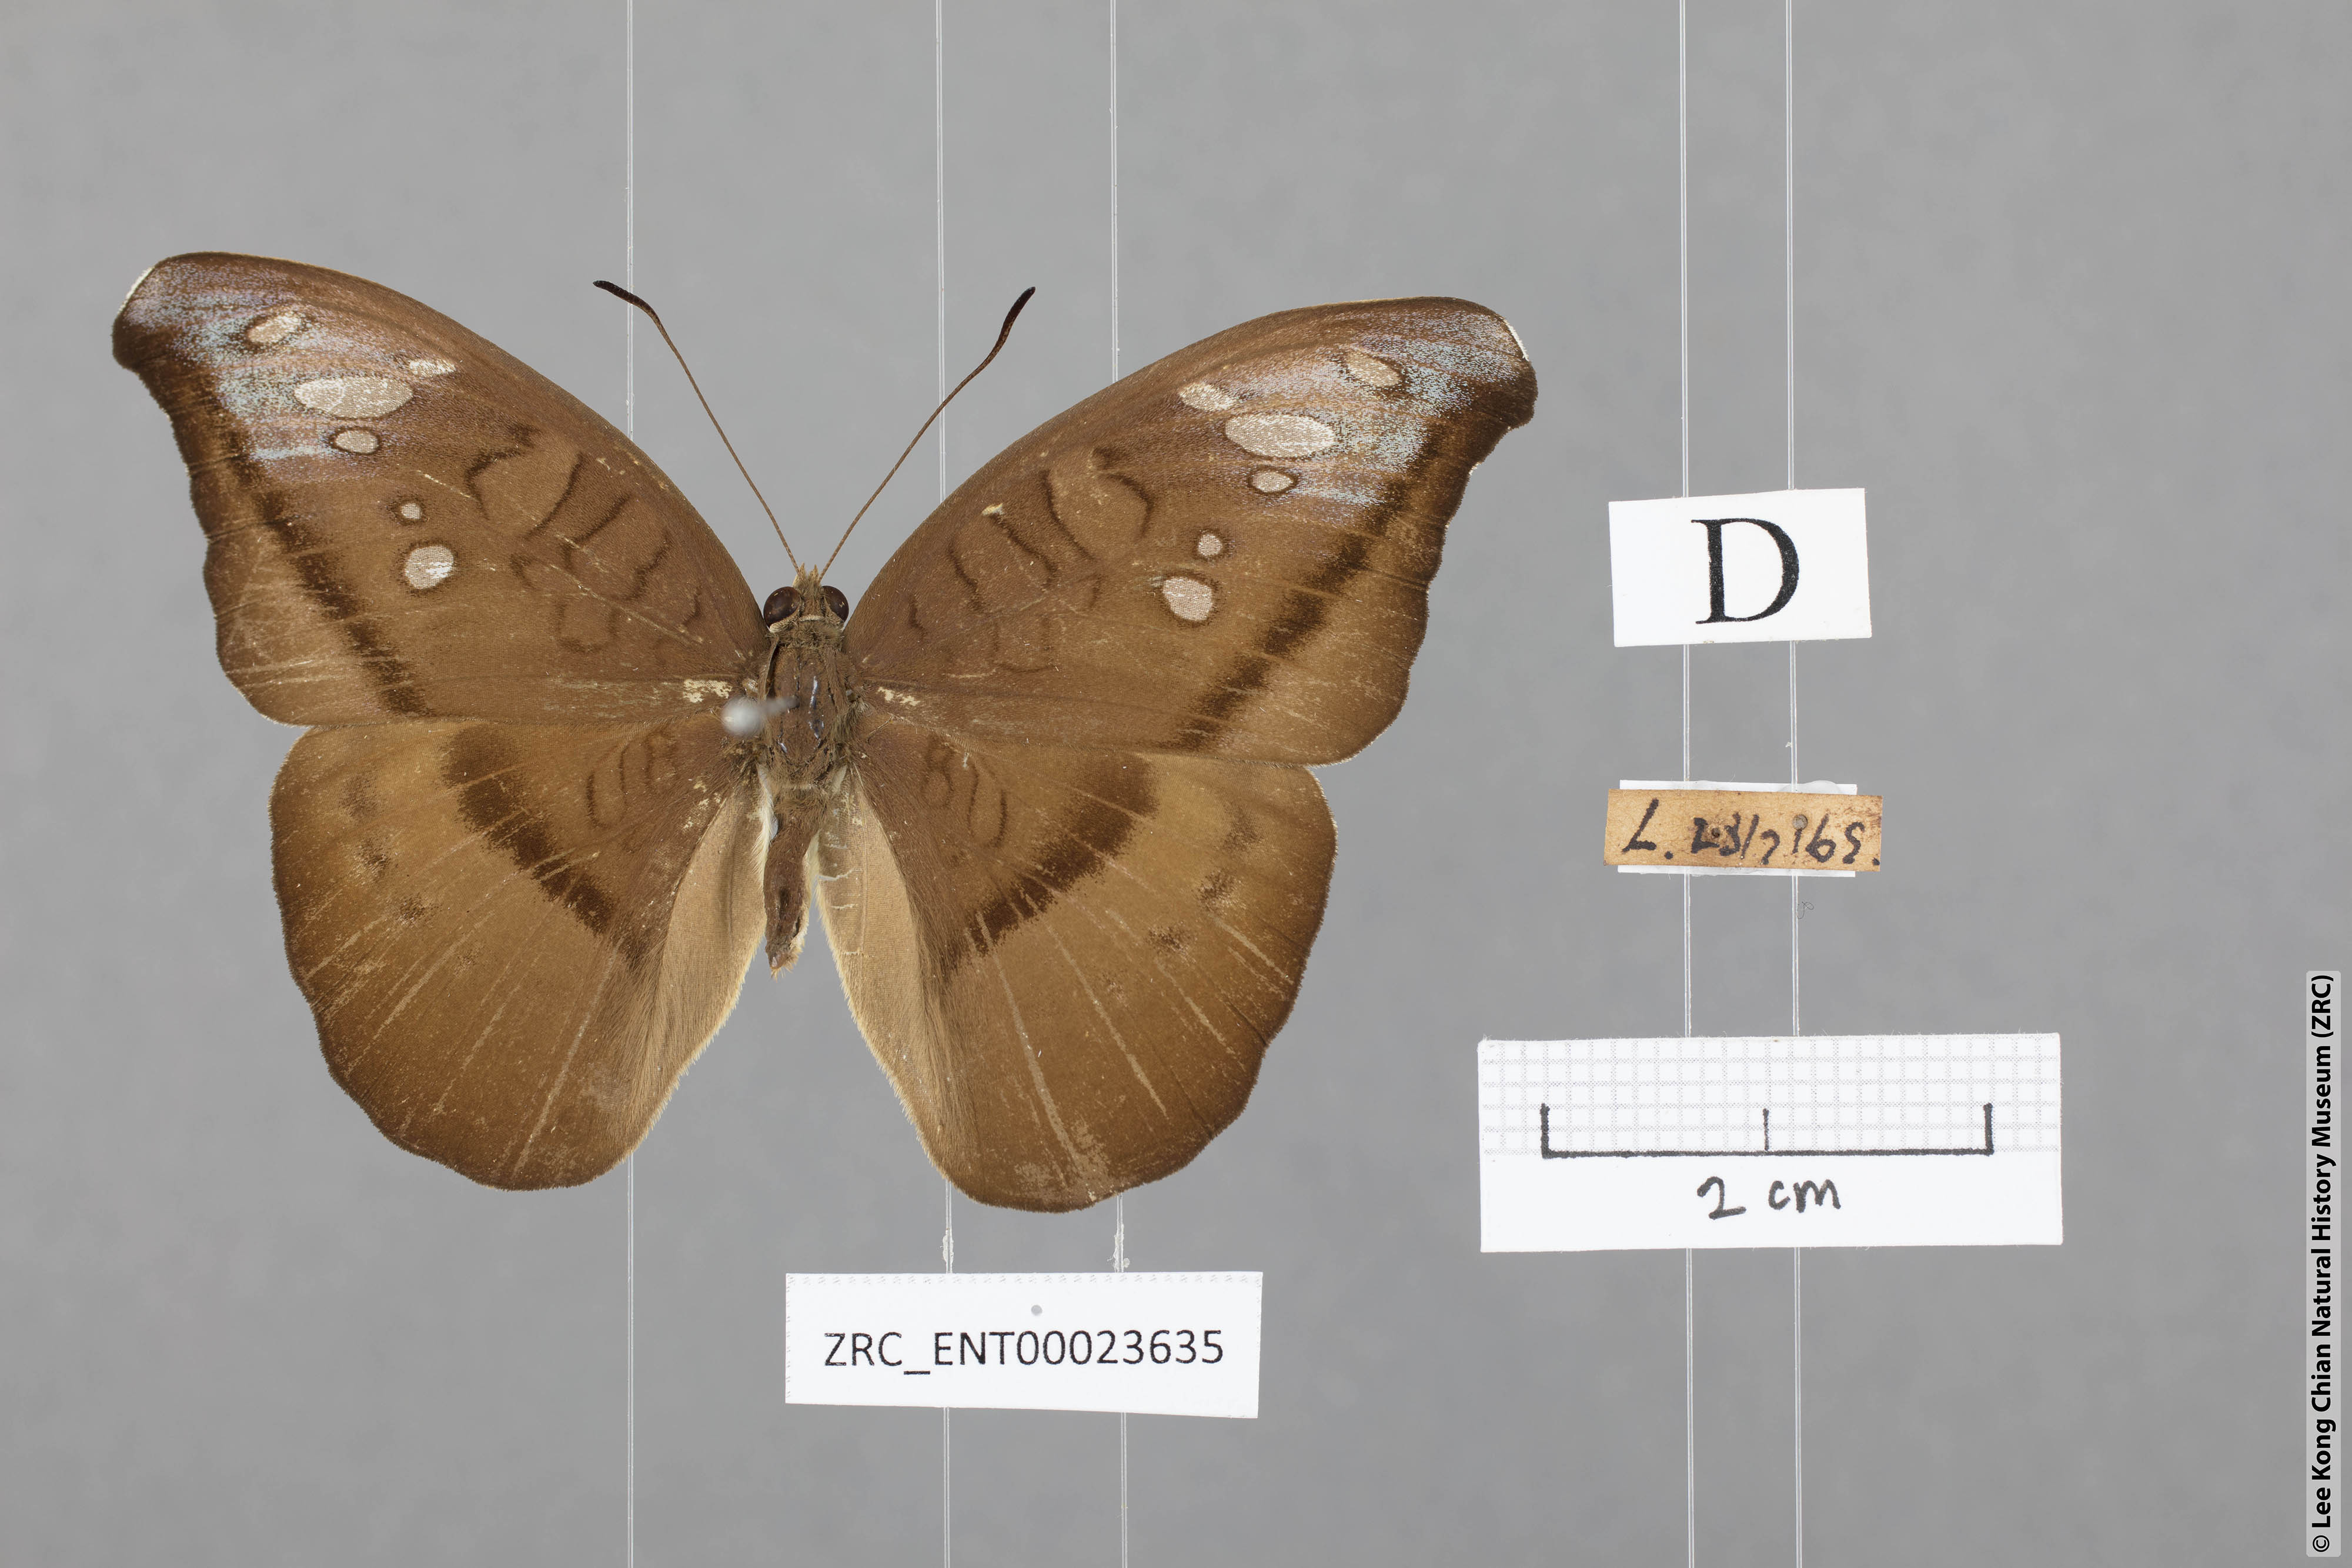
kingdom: Animalia
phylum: Arthropoda
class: Insecta
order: Lepidoptera
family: Nymphalidae
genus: Tanaecia
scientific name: Tanaecia cocytus
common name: Lavender count
